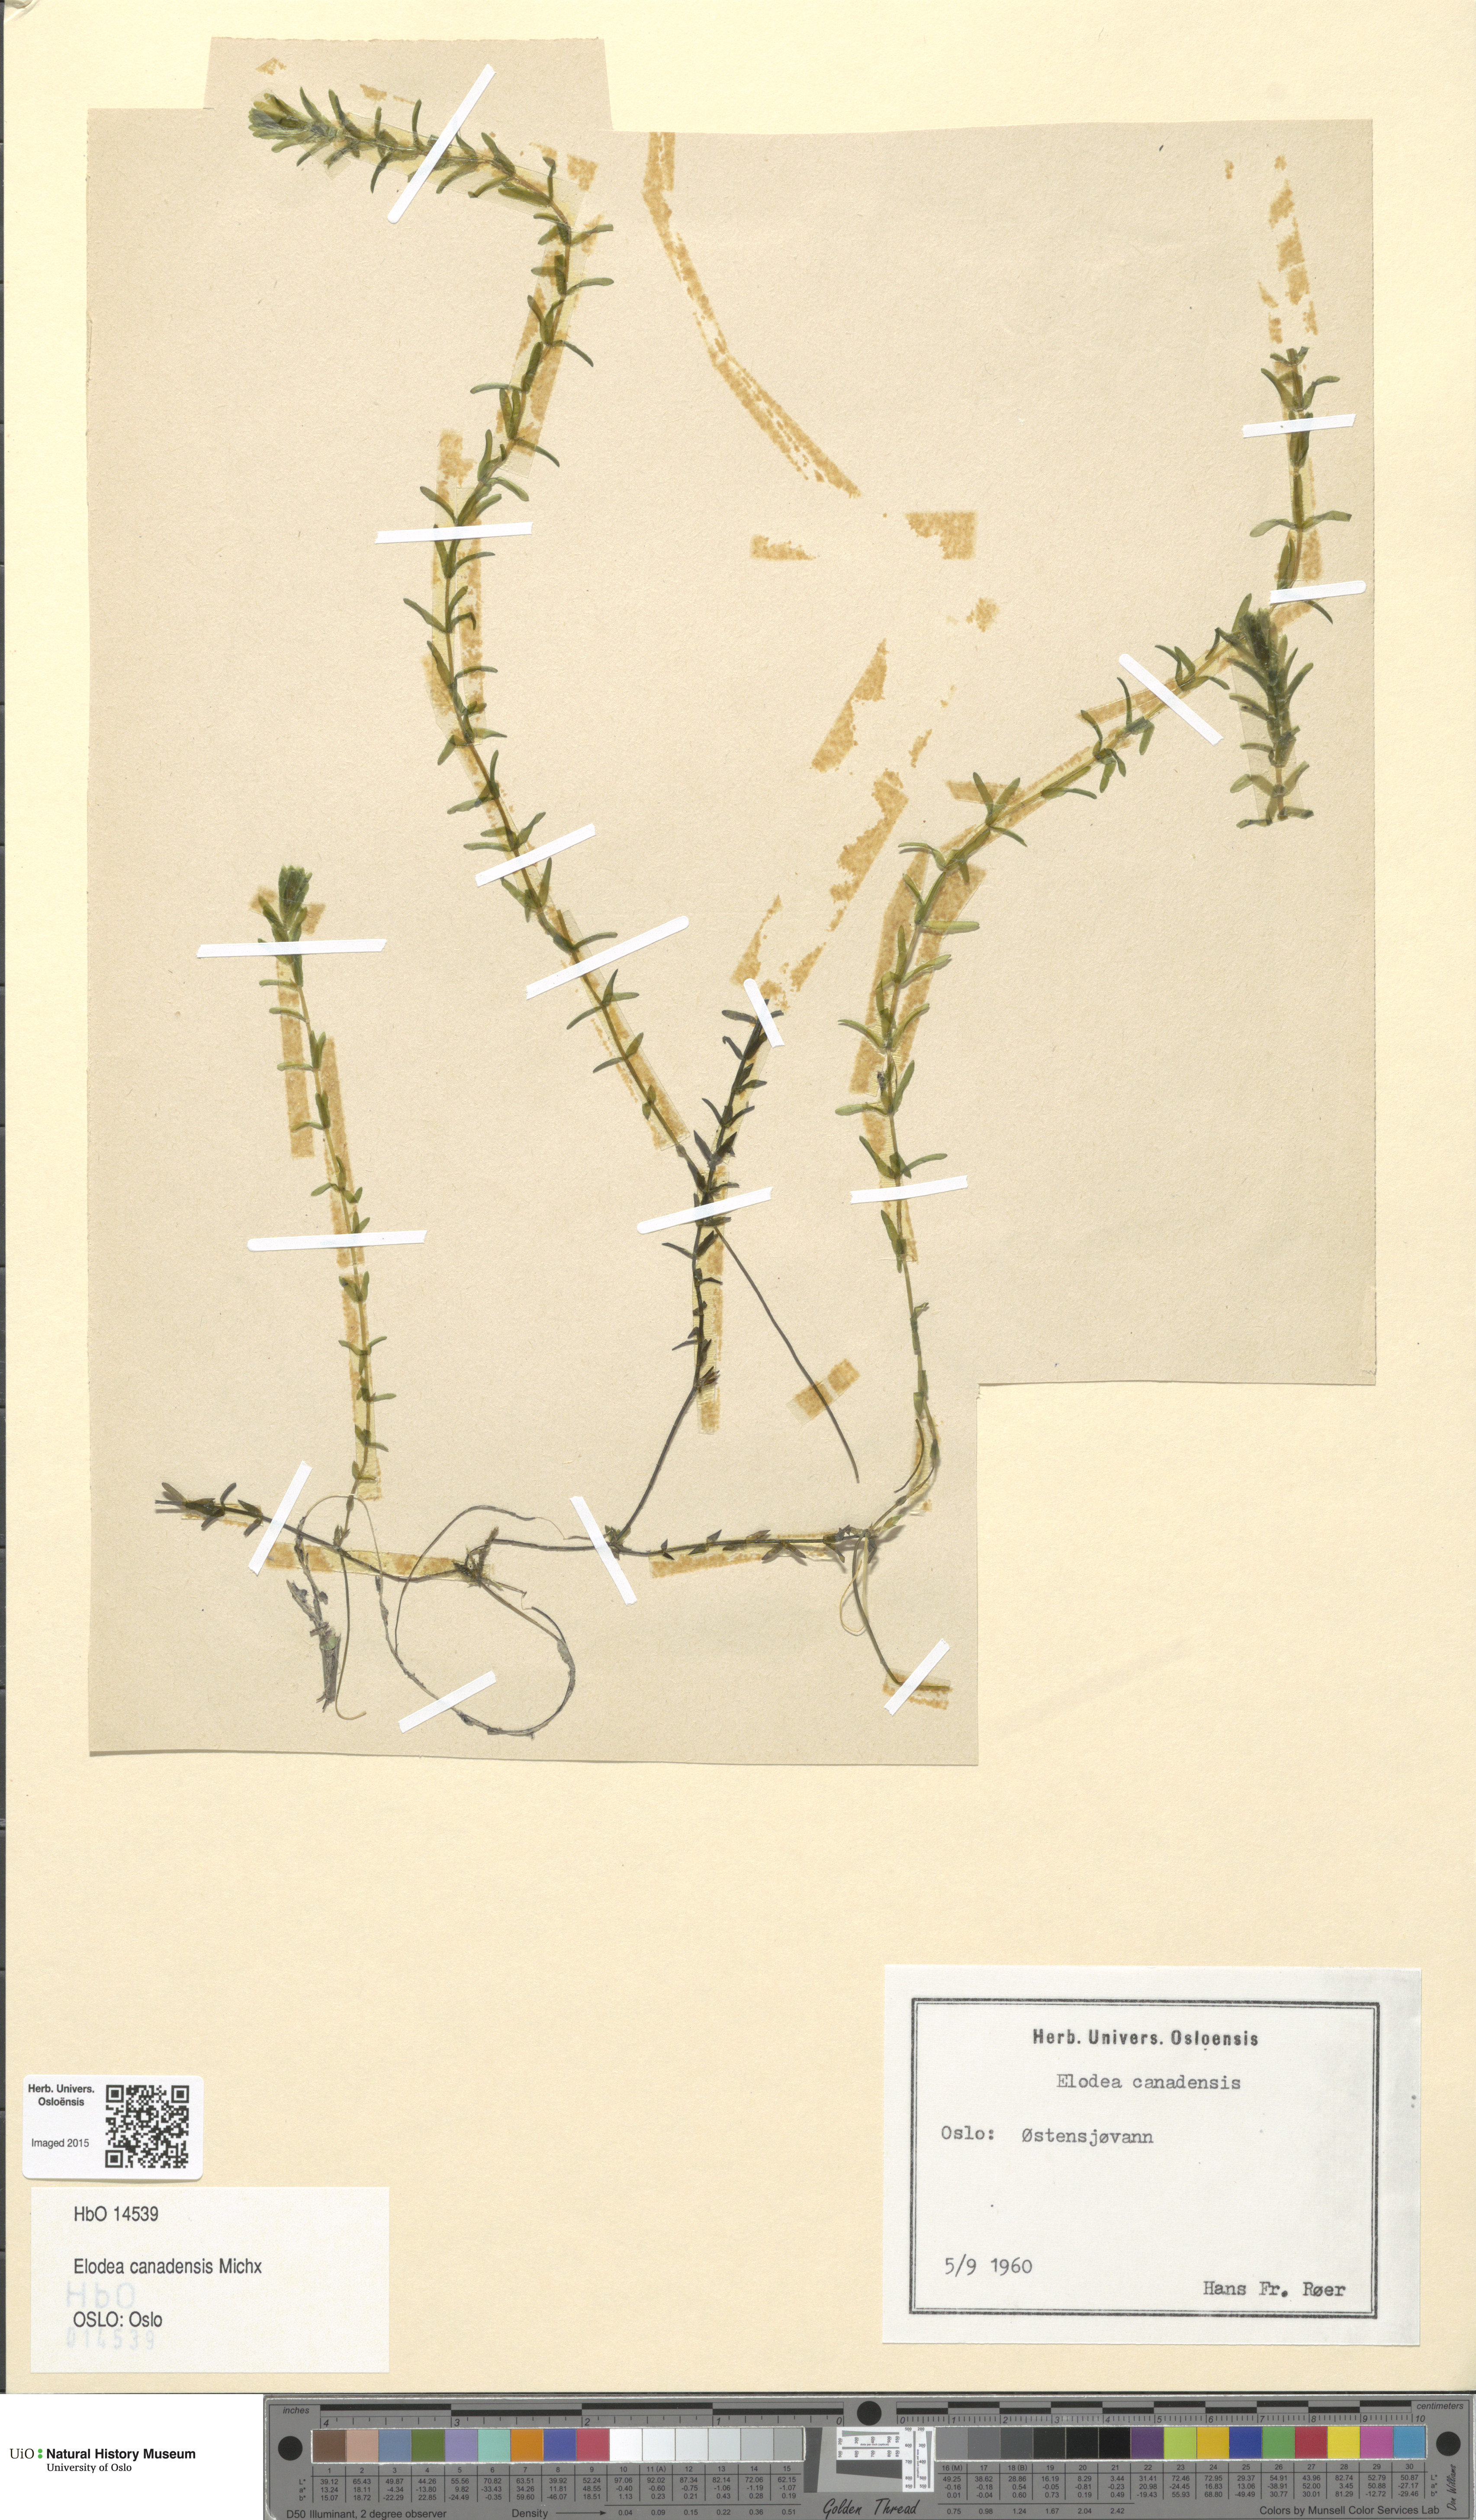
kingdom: Plantae
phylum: Tracheophyta
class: Liliopsida
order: Alismatales
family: Hydrocharitaceae
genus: Elodea
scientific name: Elodea canadensis
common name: Canadian waterweed
